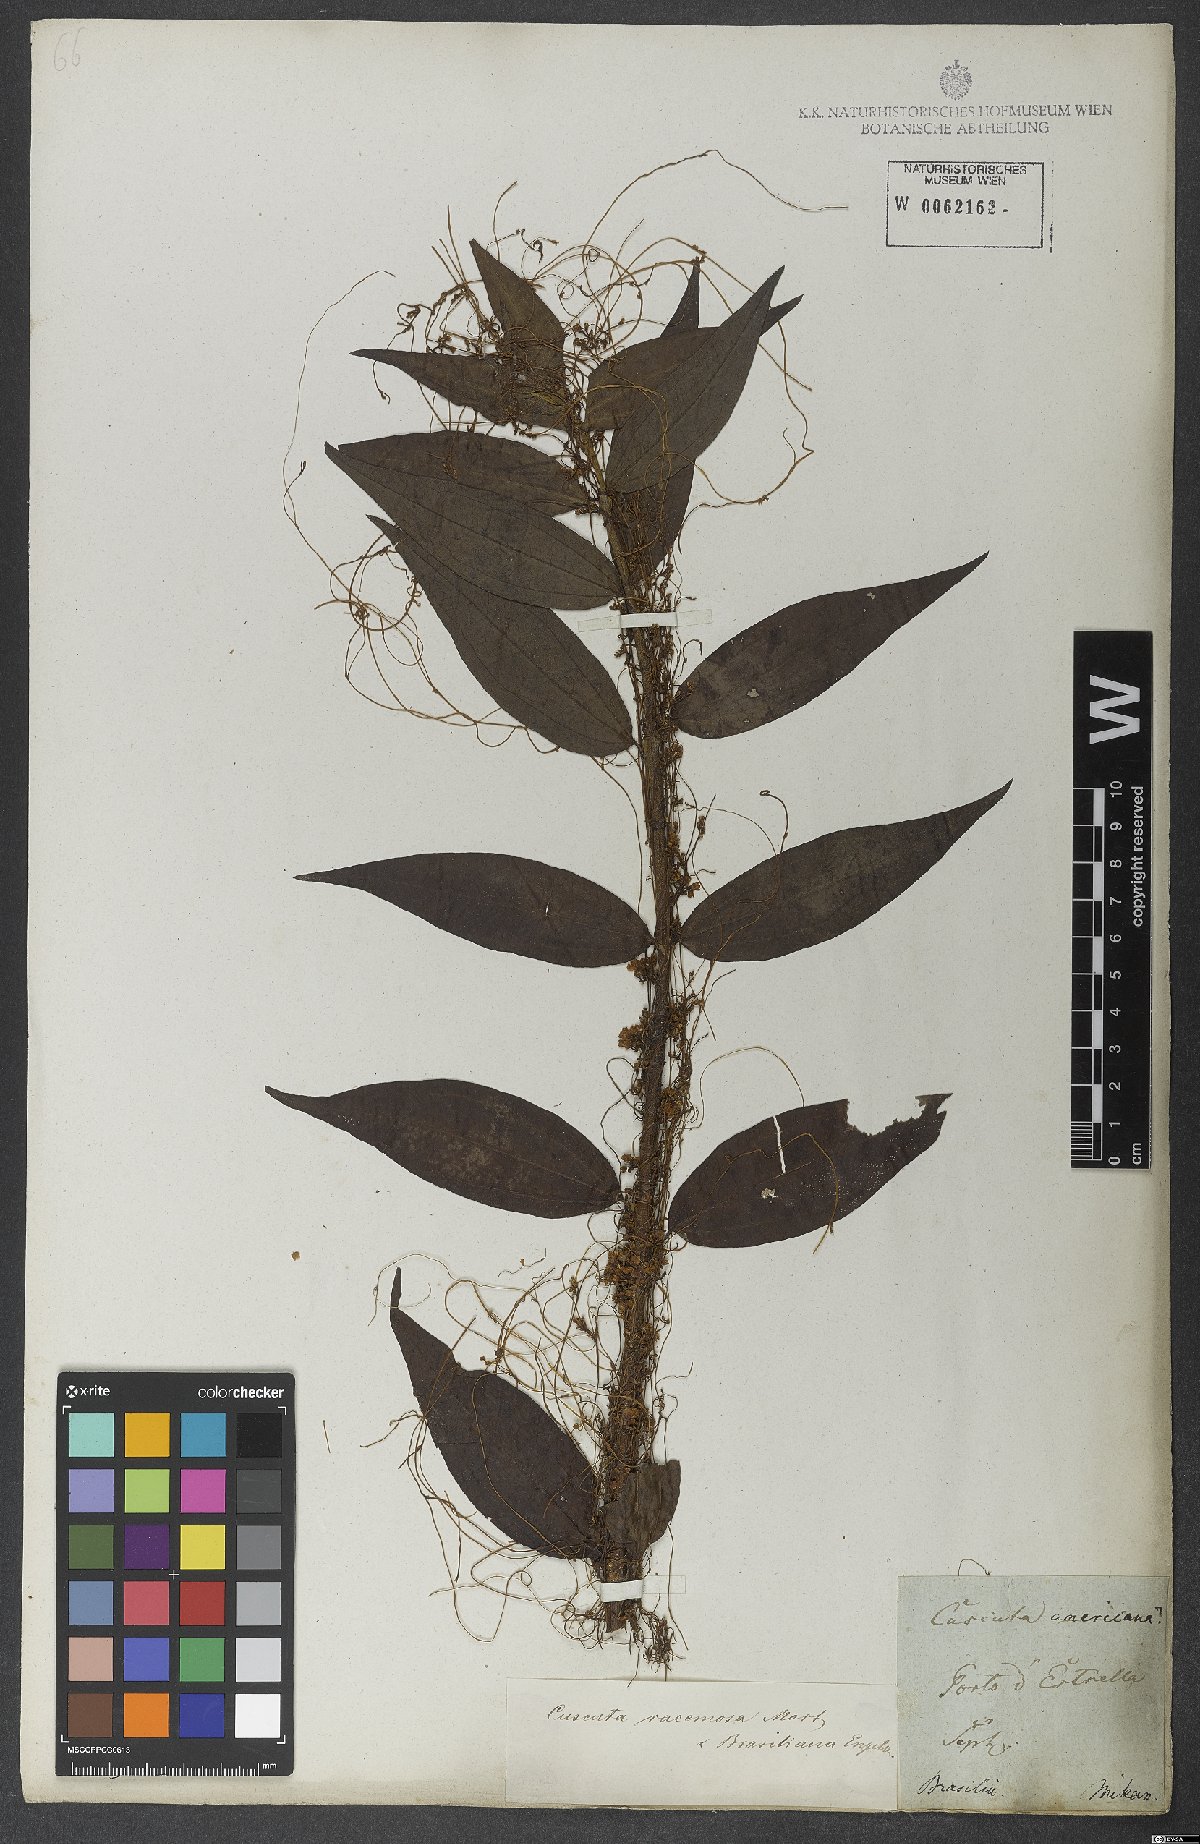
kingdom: Plantae
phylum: Tracheophyta
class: Magnoliopsida
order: Solanales
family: Convolvulaceae
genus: Cuscuta
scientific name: Cuscuta racemosa
